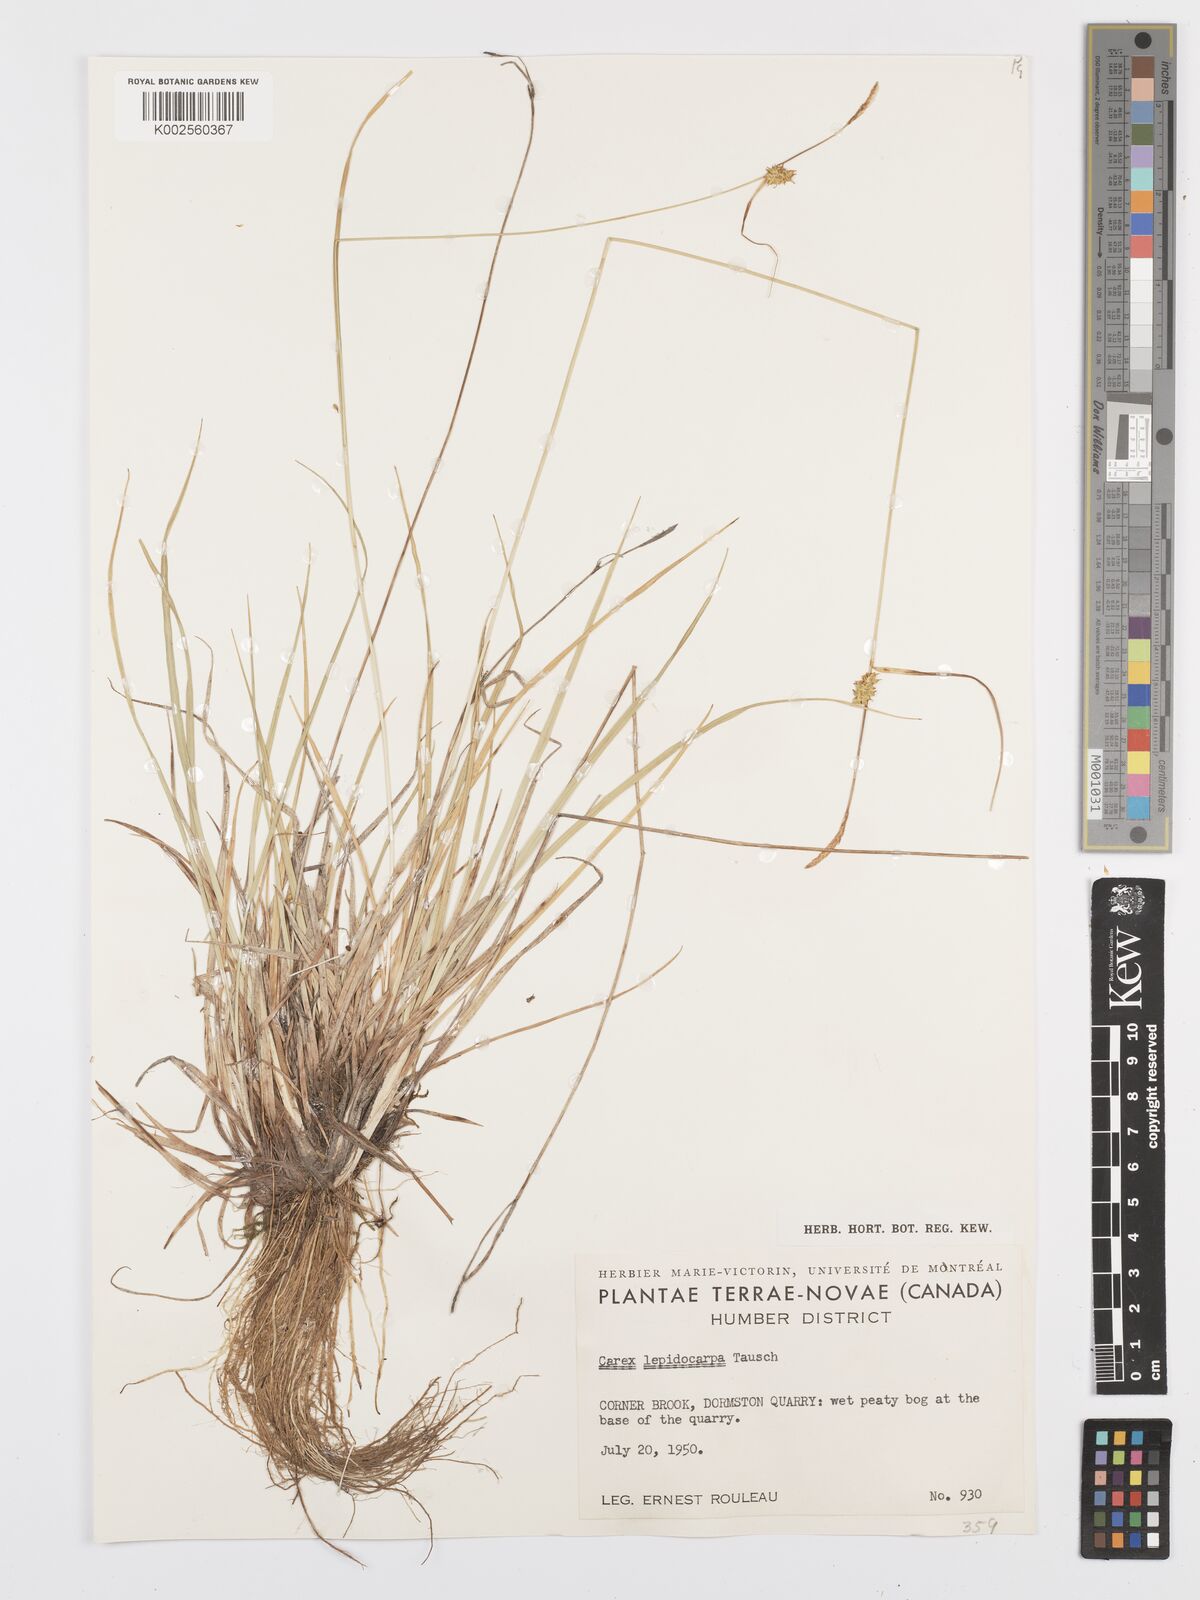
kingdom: Plantae
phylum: Tracheophyta
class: Liliopsida
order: Poales
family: Cyperaceae
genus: Carex
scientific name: Carex lepidocarpa
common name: Long-stalked yellow-sedge
